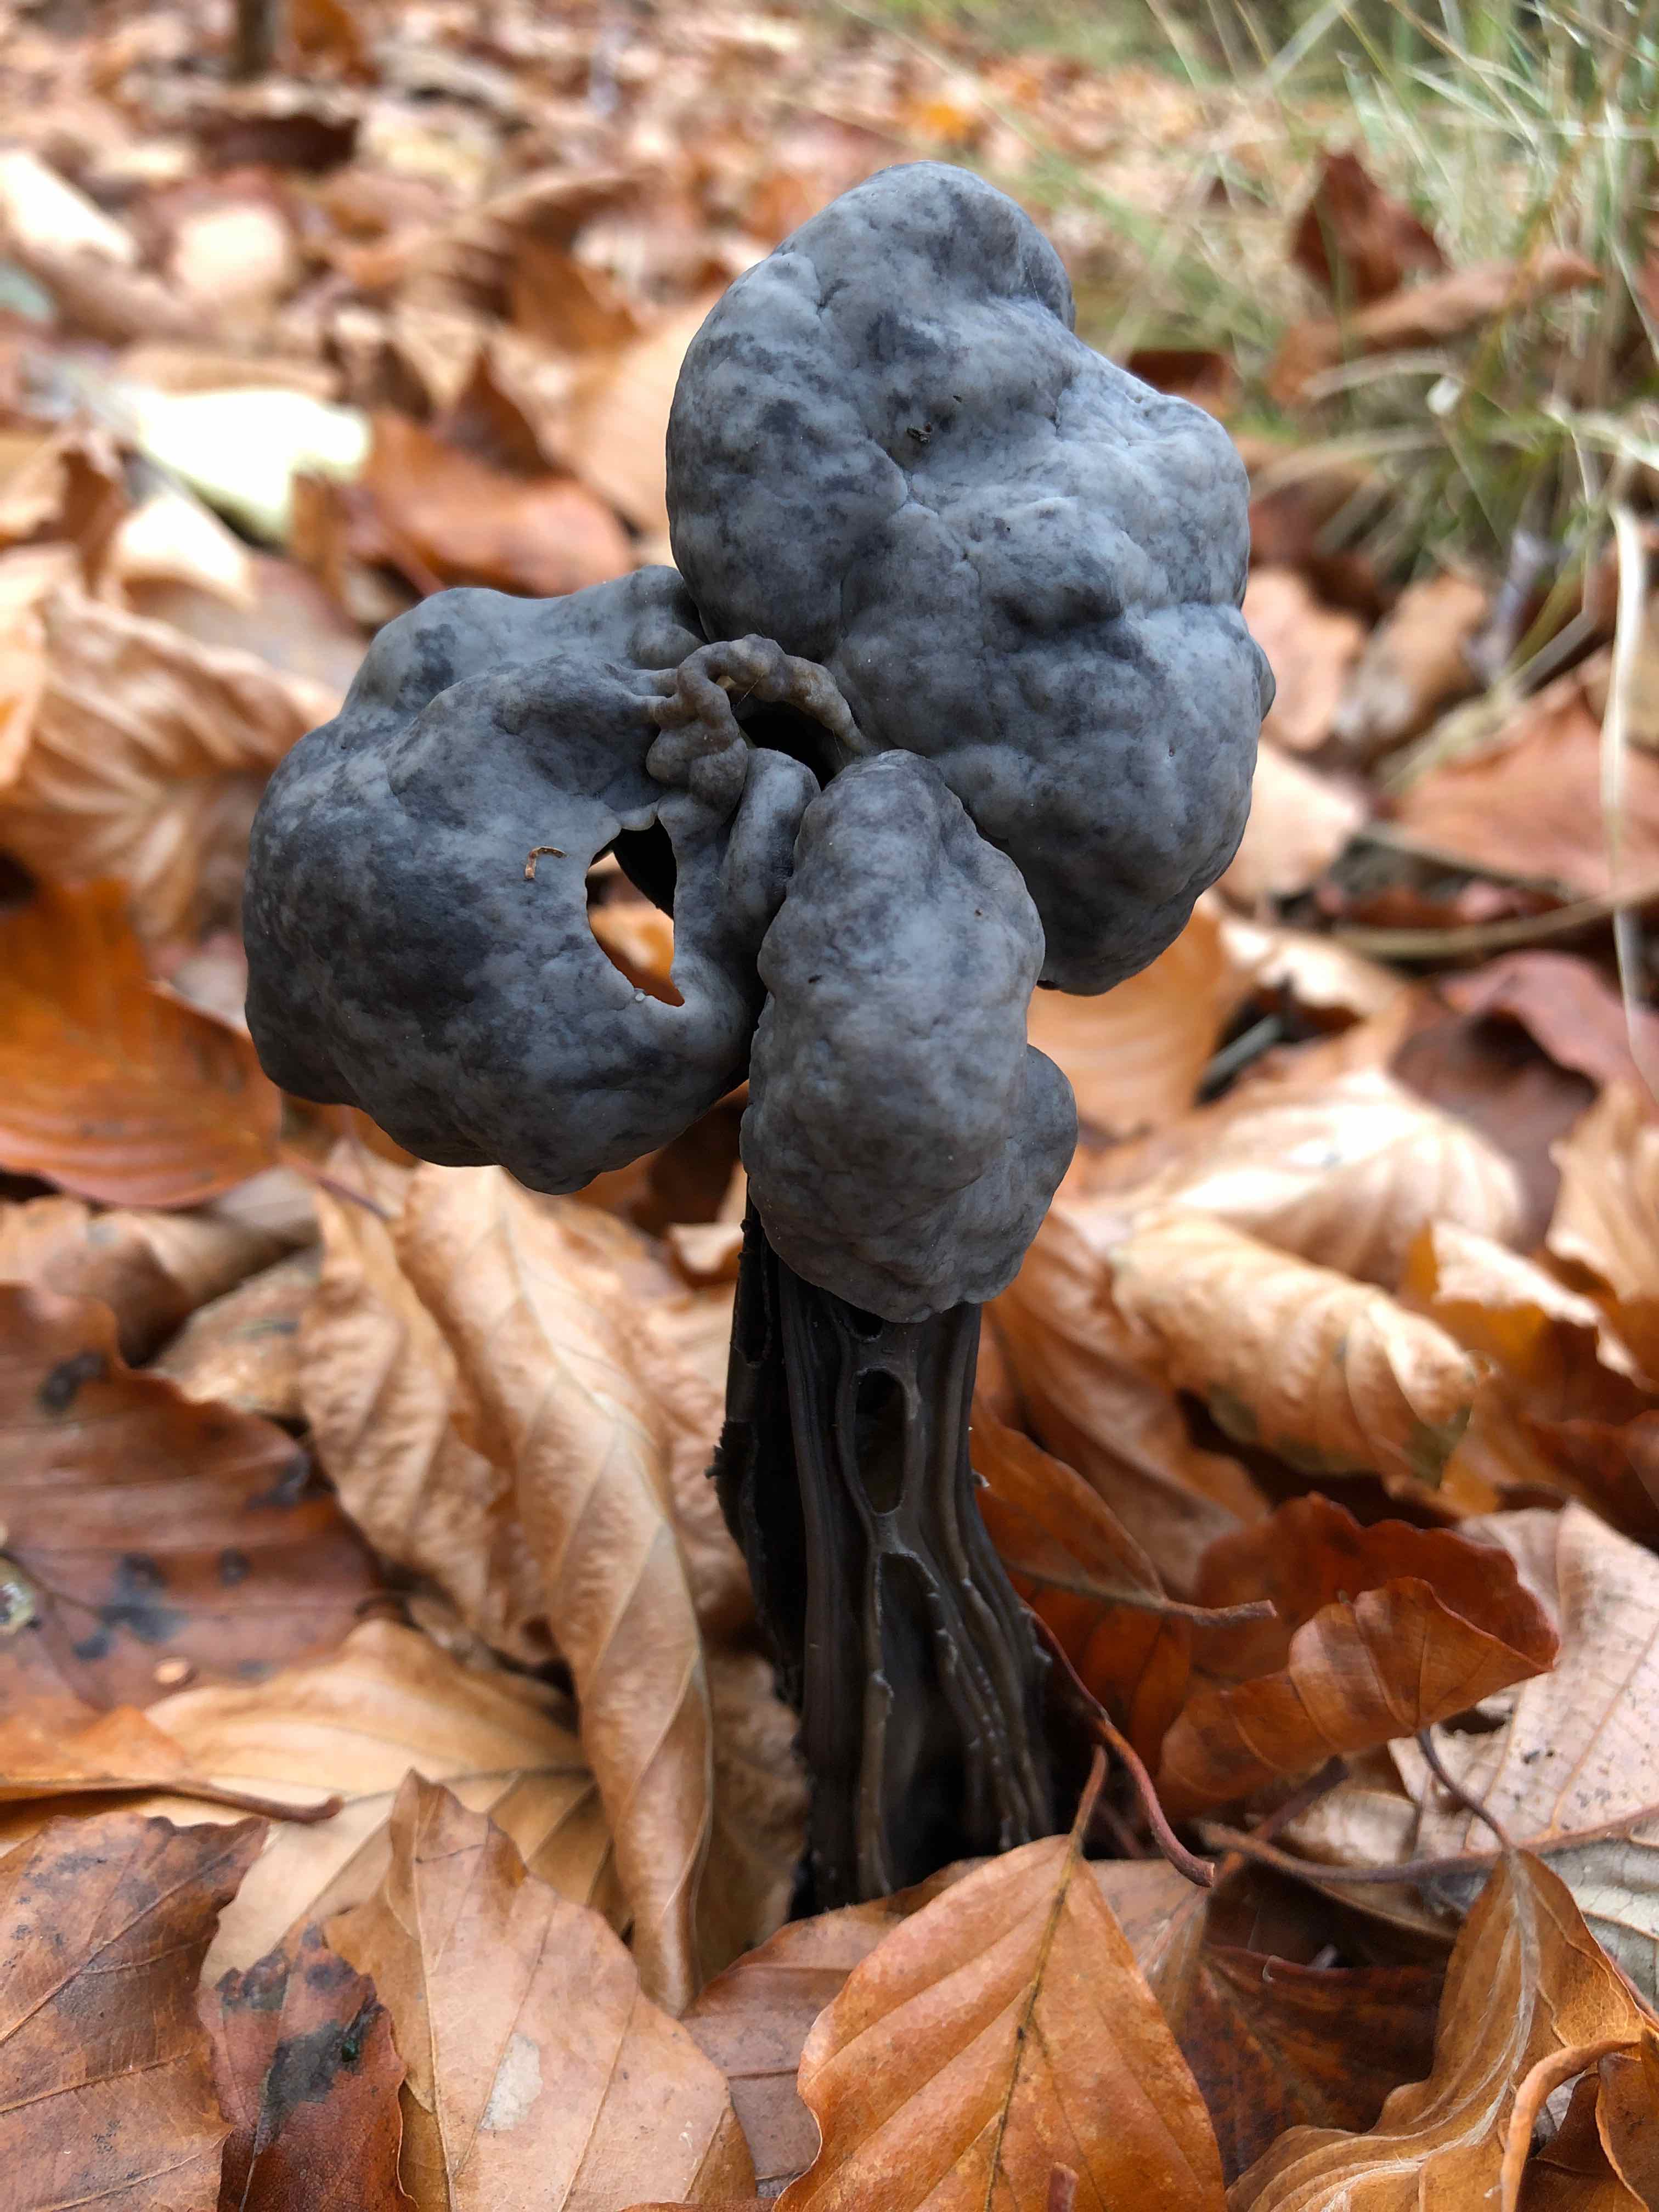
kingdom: Fungi
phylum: Ascomycota
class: Pezizomycetes
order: Pezizales
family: Helvellaceae
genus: Helvella
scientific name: Helvella lacunosa
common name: grubet foldhat
